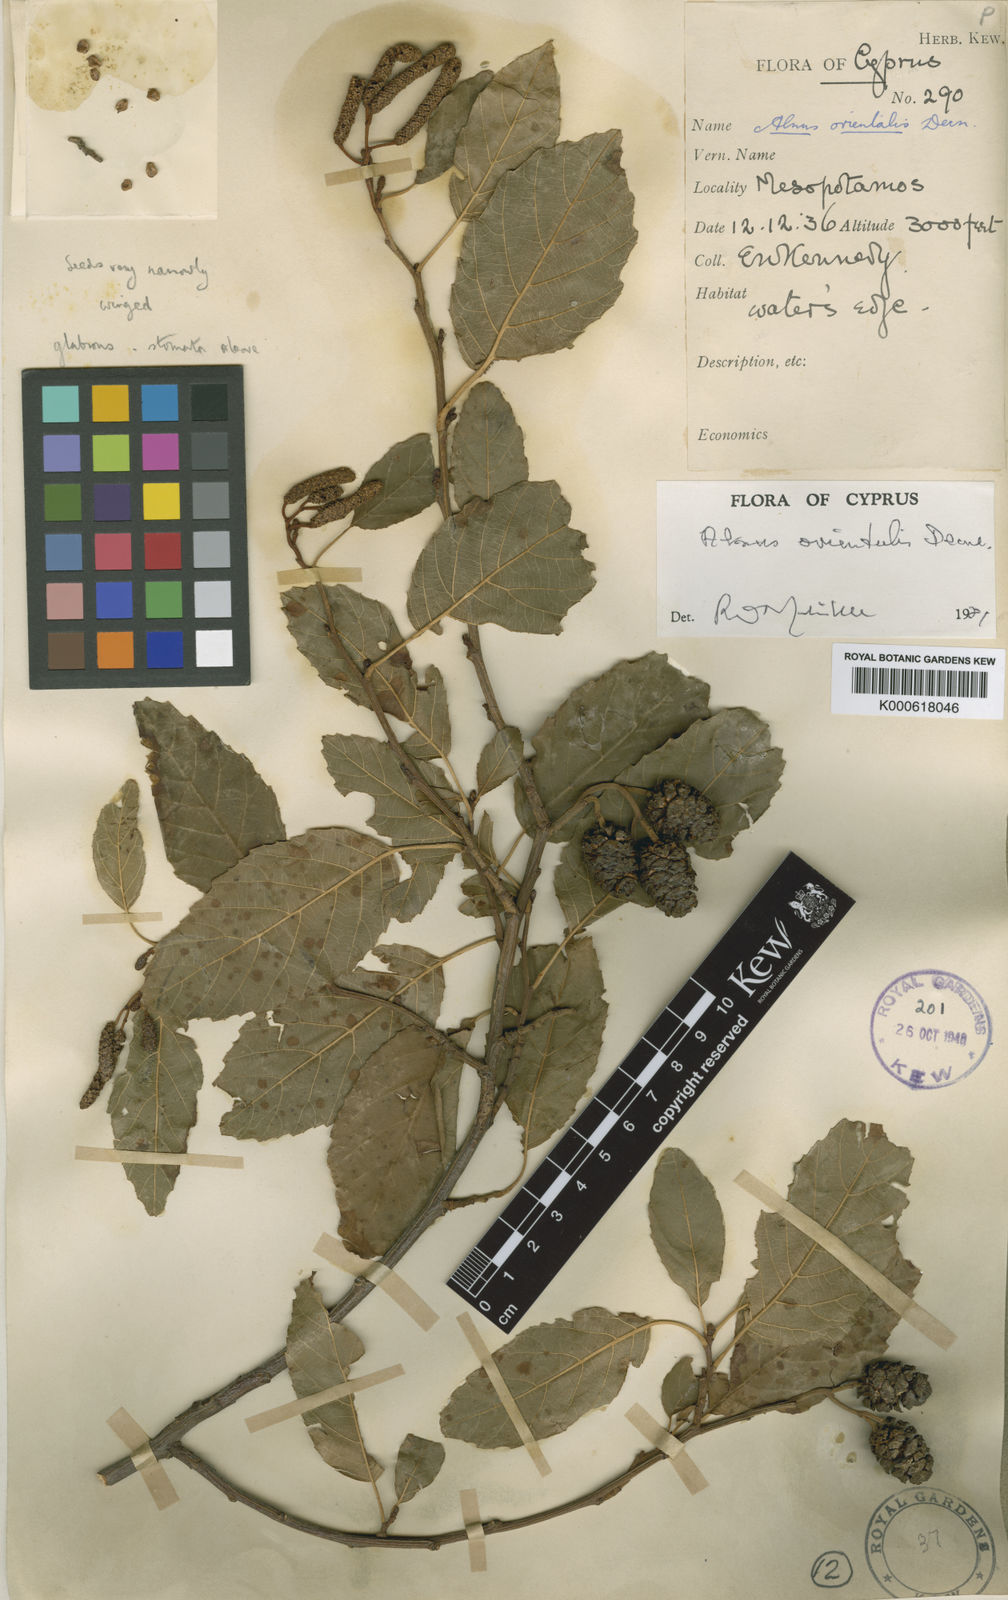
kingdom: Plantae
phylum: Tracheophyta
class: Magnoliopsida
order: Fagales
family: Betulaceae
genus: Alnus
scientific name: Alnus orientalis
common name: Oriental alder
